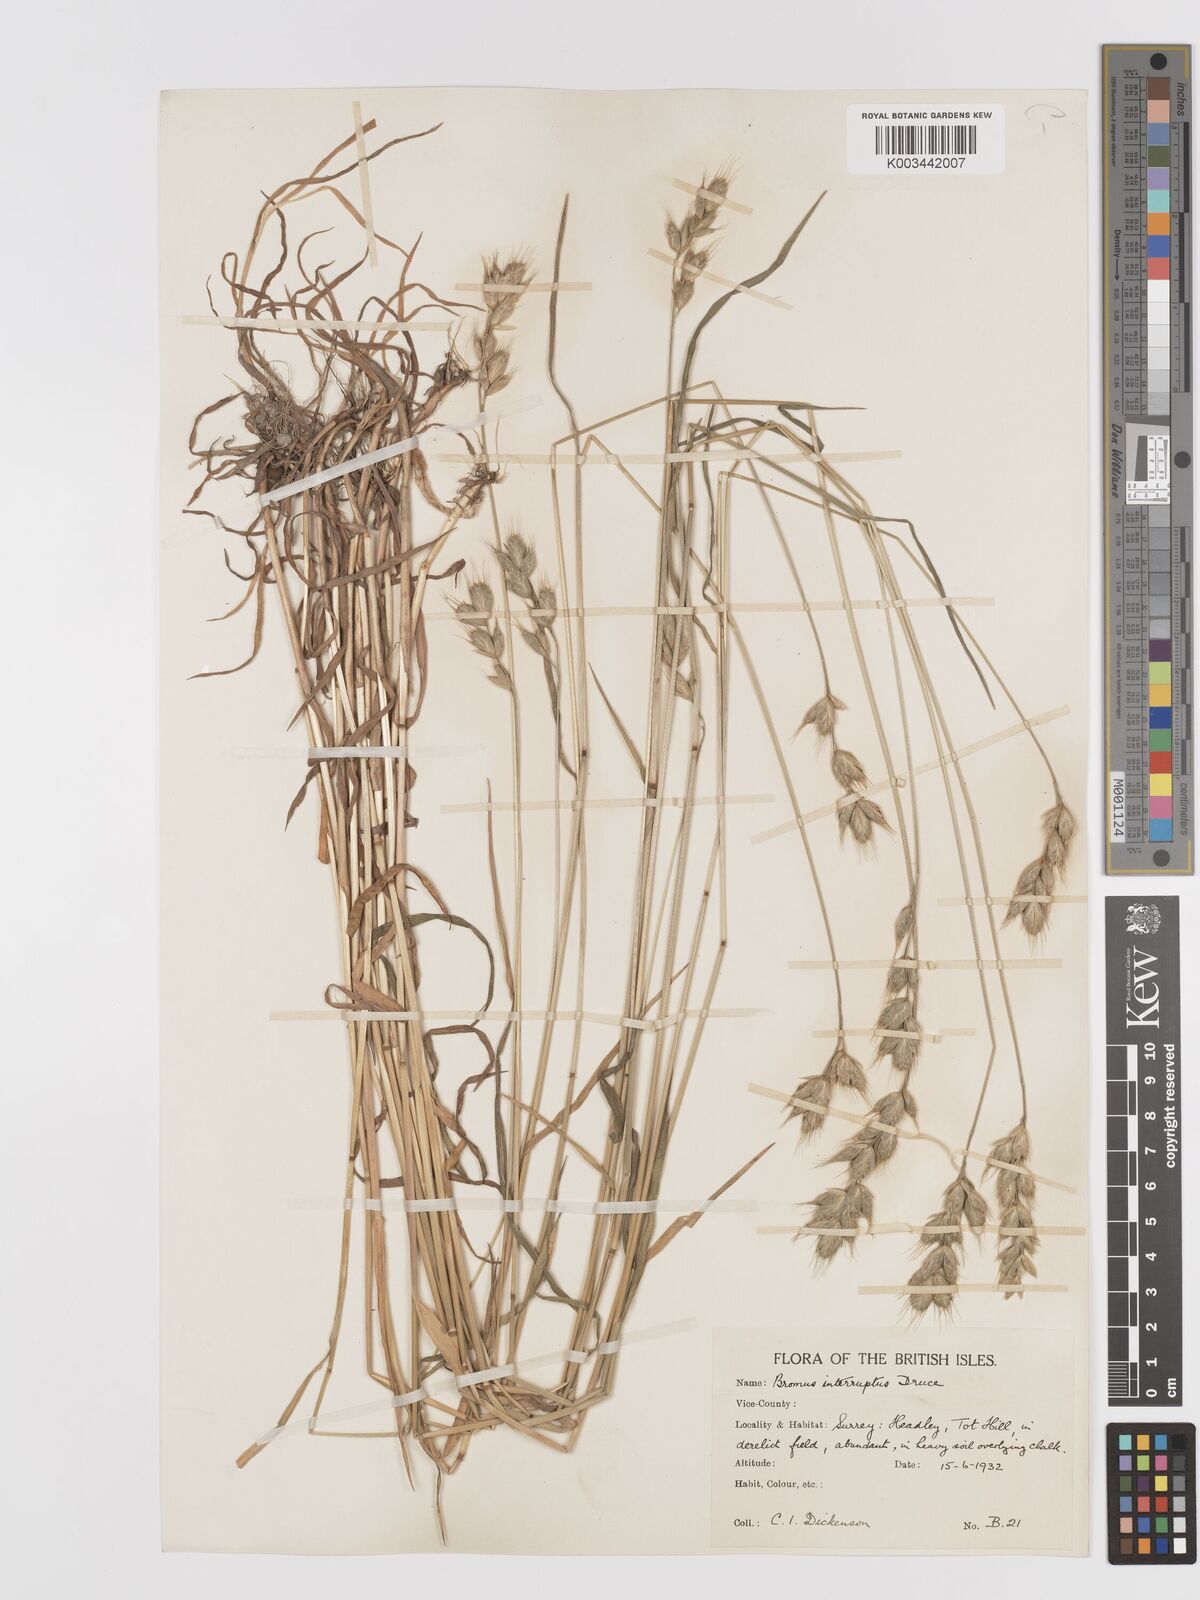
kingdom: Plantae
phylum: Tracheophyta
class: Liliopsida
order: Poales
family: Poaceae
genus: Bromus
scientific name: Bromus interruptus
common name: Interrupted brome
